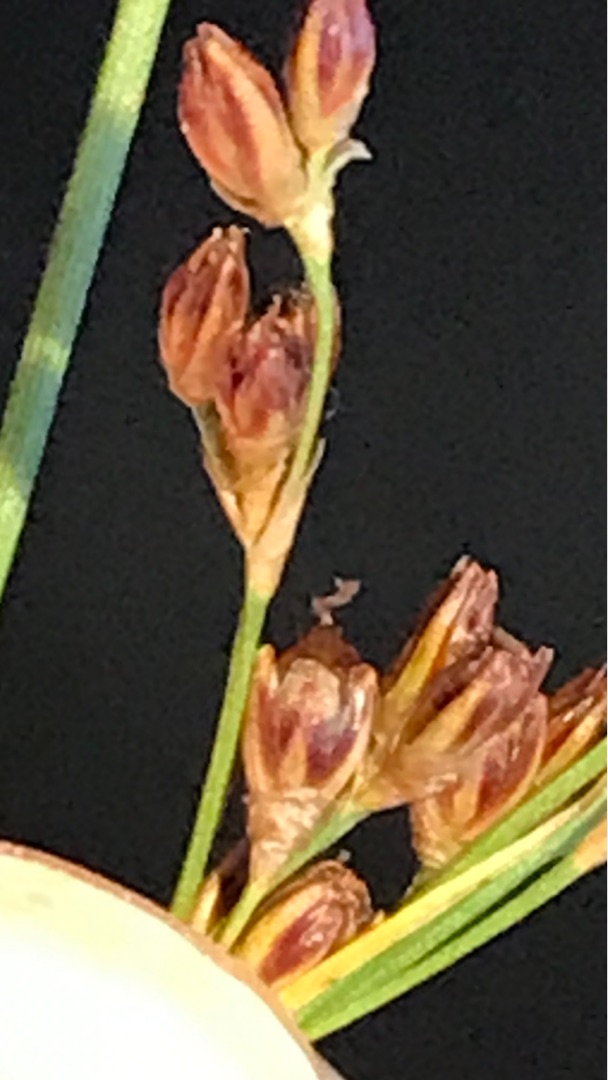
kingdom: Plantae
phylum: Tracheophyta
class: Liliopsida
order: Poales
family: Juncaceae
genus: Juncus
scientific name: Juncus gerardi
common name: Harril
